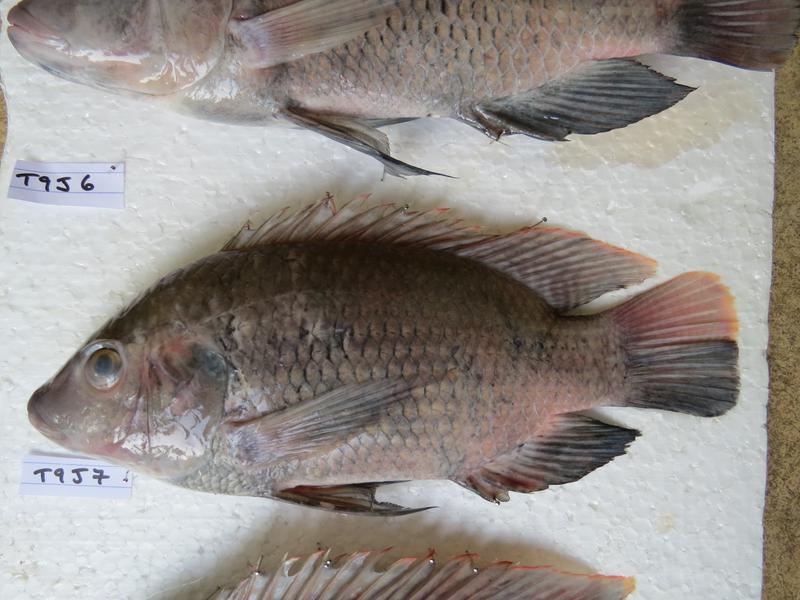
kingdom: Animalia
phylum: Chordata
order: Perciformes
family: Cichlidae
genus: Oreochromis
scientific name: Oreochromis urolepis
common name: Wami tilapia
